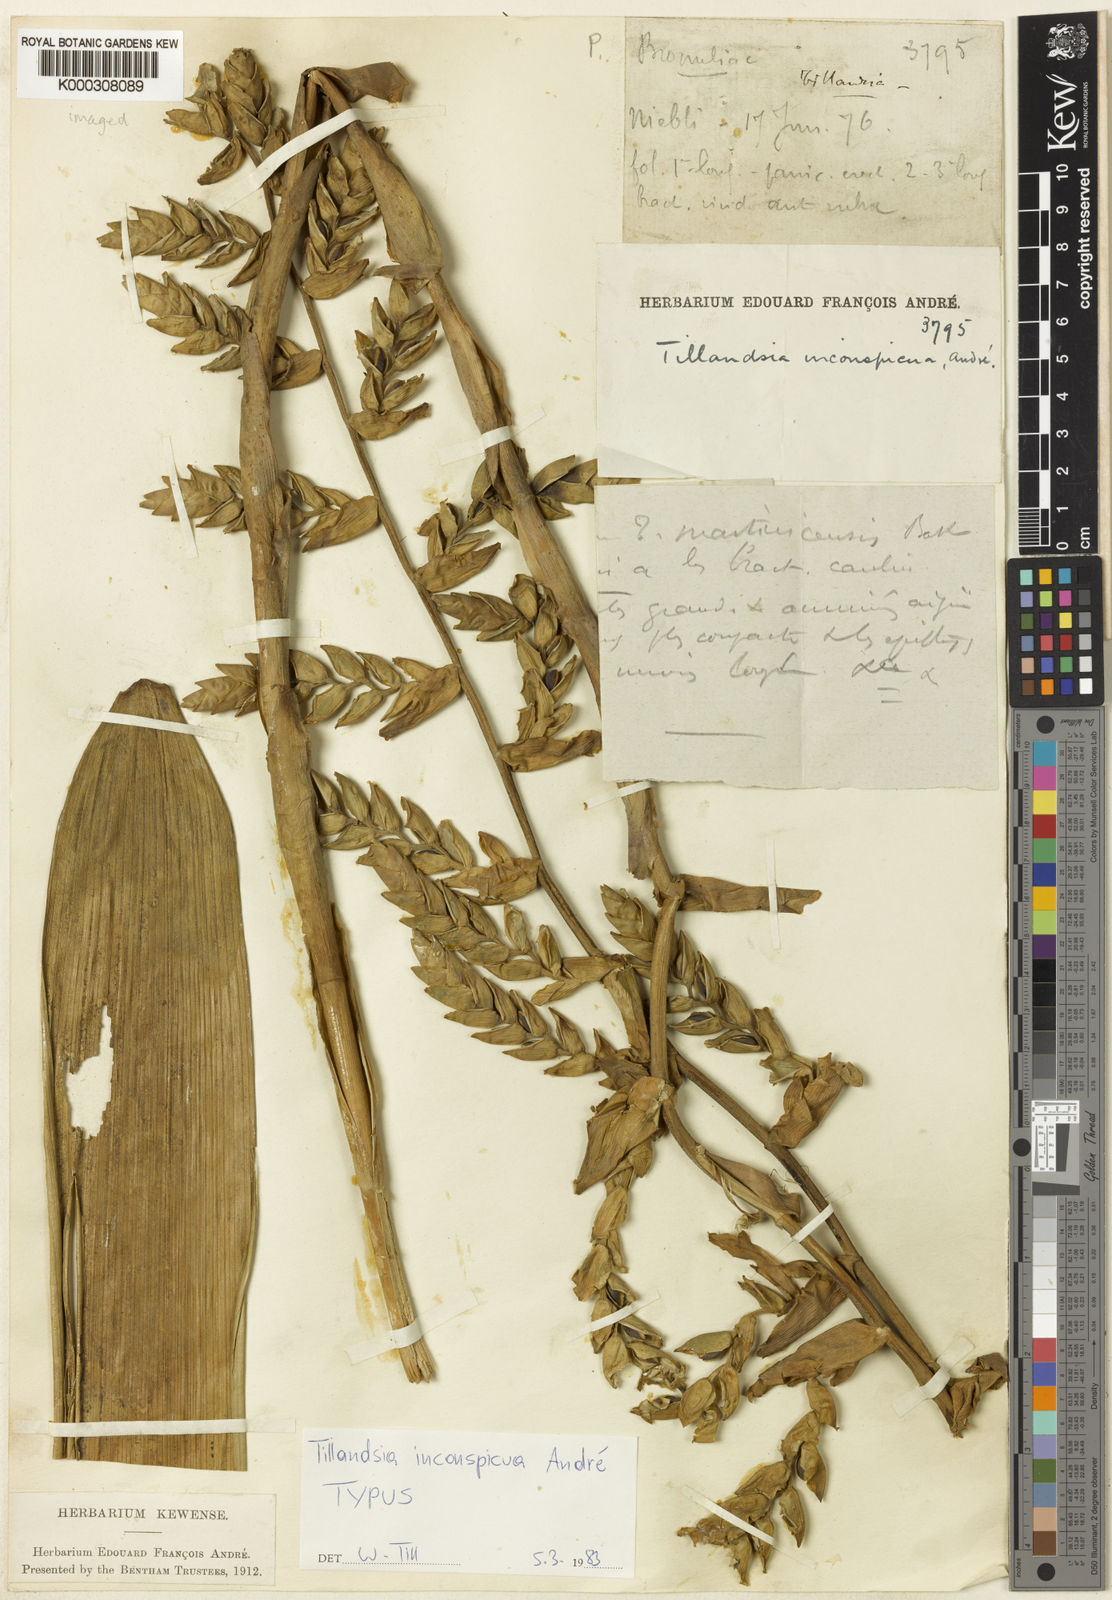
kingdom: Plantae
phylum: Tracheophyta
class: Liliopsida
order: Poales
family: Bromeliaceae
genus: Tillandsia
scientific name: Tillandsia
